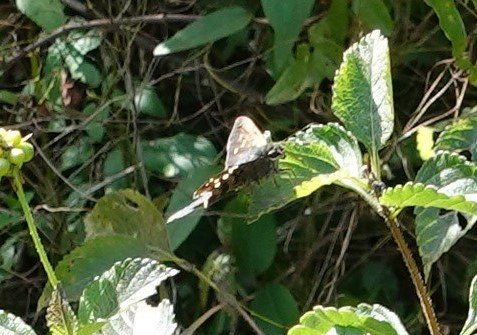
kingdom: Animalia
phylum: Arthropoda
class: Insecta
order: Lepidoptera
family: Hesperiidae
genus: Urbanus
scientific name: Urbanus proteus
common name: Long-tailed Skipper
